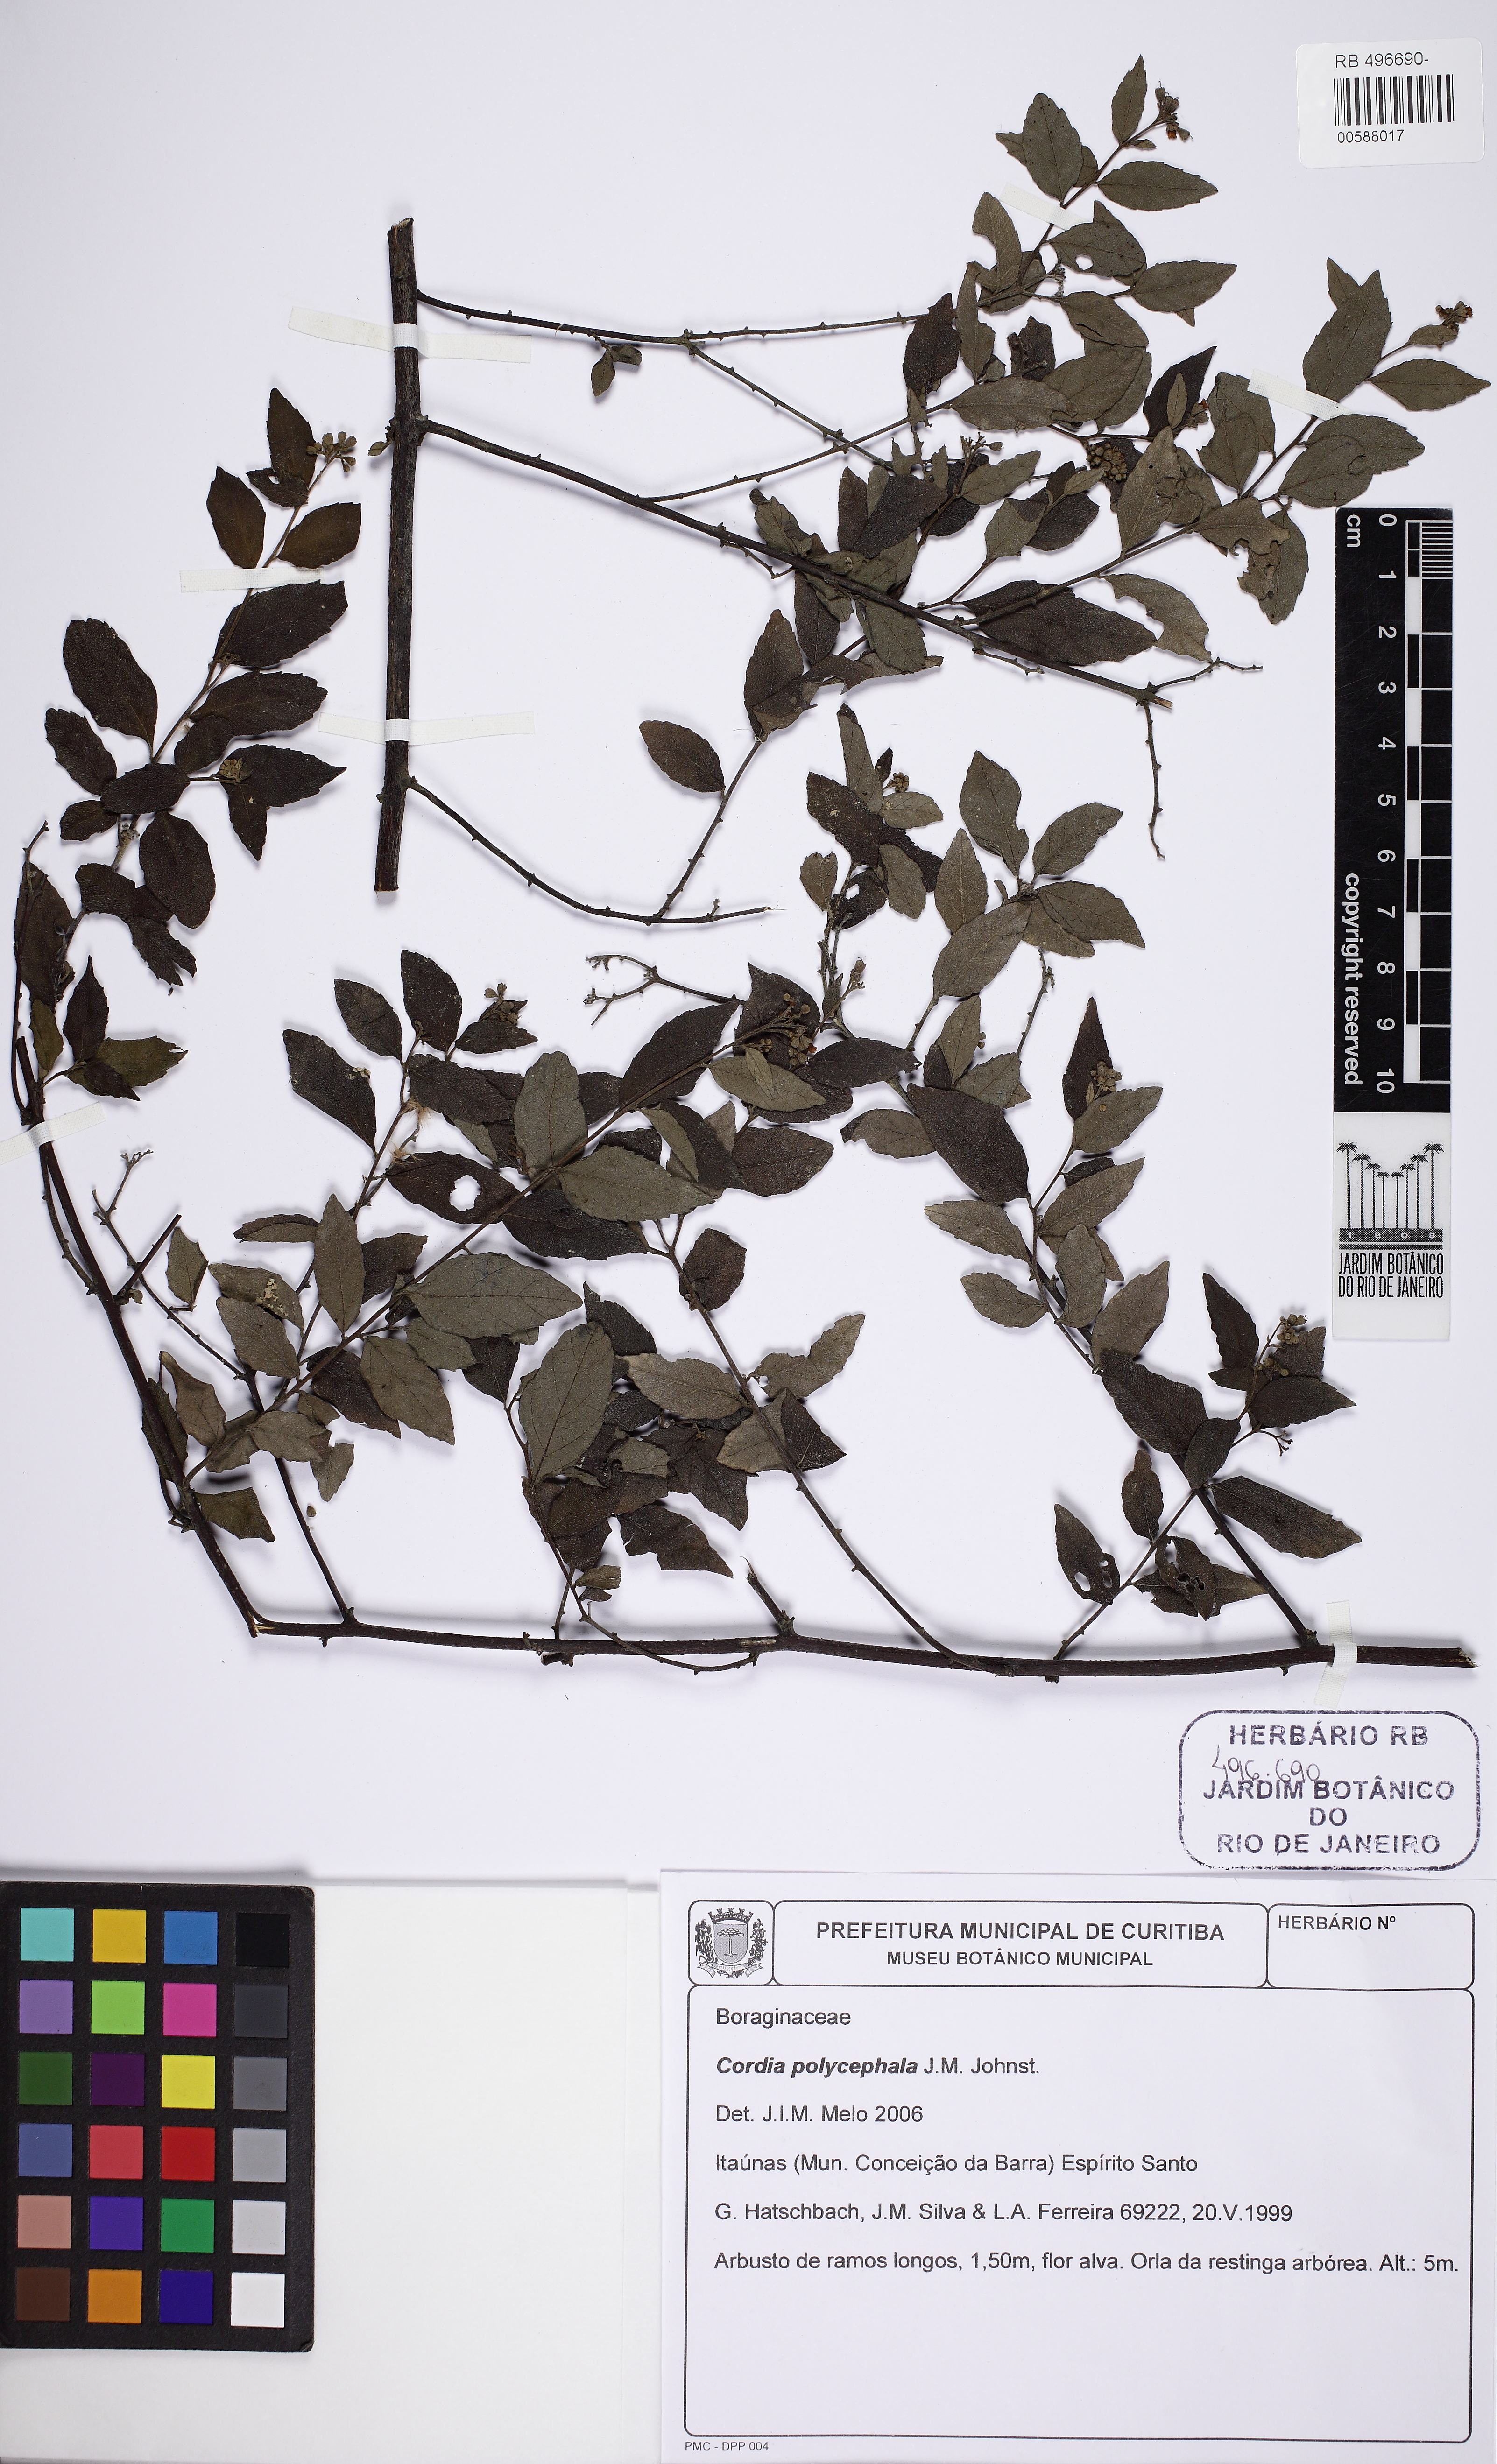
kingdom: Plantae
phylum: Tracheophyta
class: Magnoliopsida
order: Boraginales
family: Cordiaceae
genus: Varronia
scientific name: Varronia polycephala
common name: Black-sage
